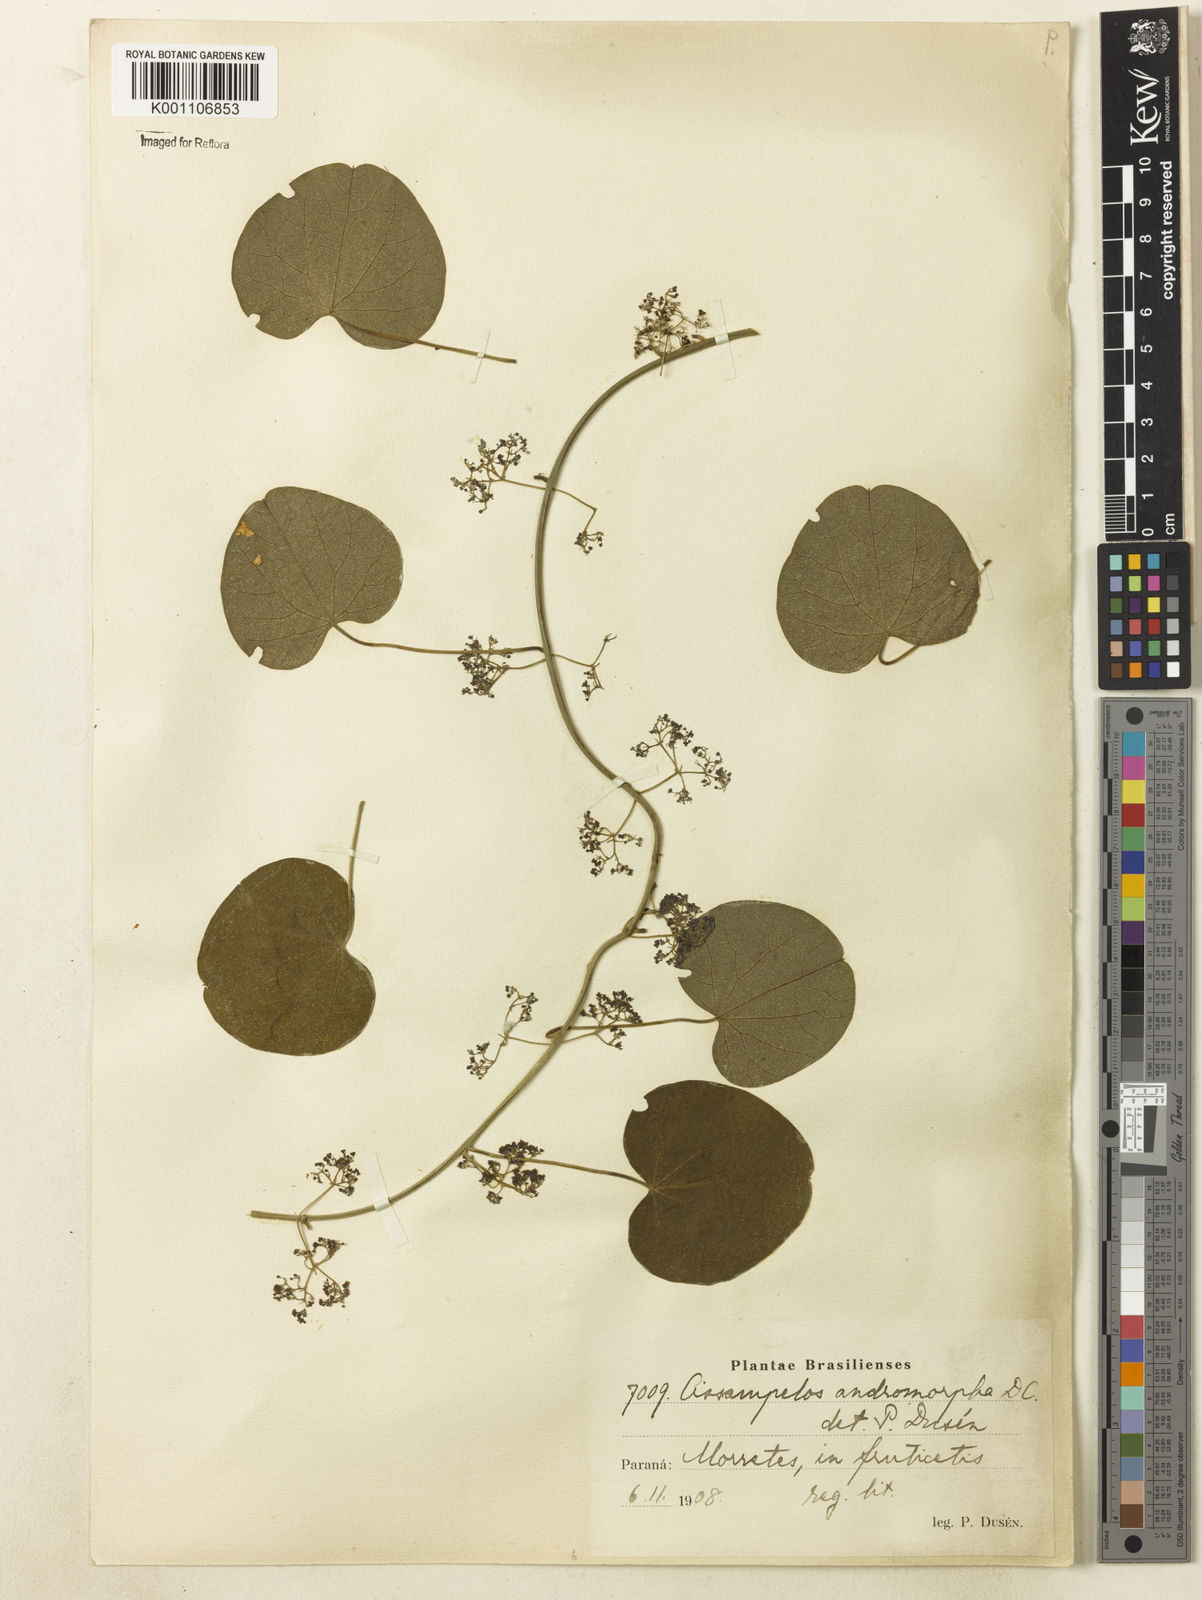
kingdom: Plantae
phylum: Tracheophyta
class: Magnoliopsida
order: Ranunculales
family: Menispermaceae
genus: Cissampelos
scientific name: Cissampelos andromorpha
